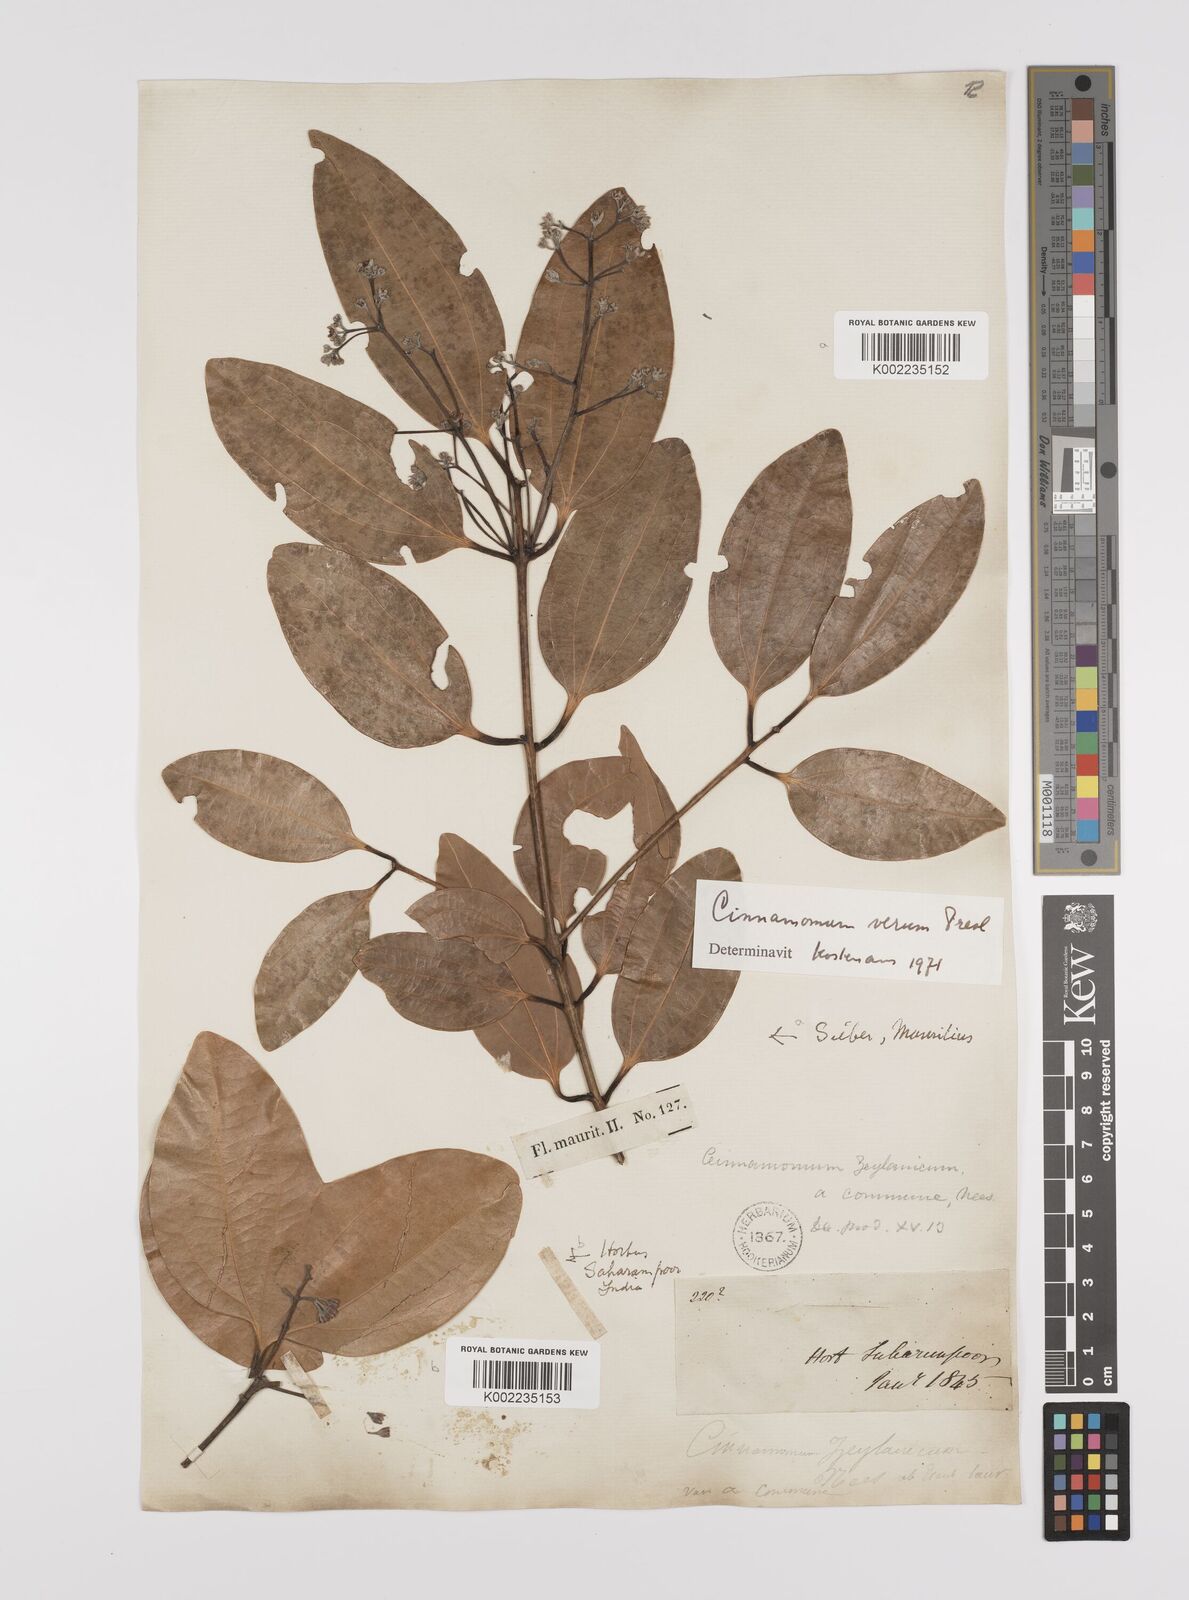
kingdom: Plantae
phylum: Tracheophyta
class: Magnoliopsida
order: Laurales
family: Lauraceae
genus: Cinnamomum
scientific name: Cinnamomum verum
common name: Cinnamon
